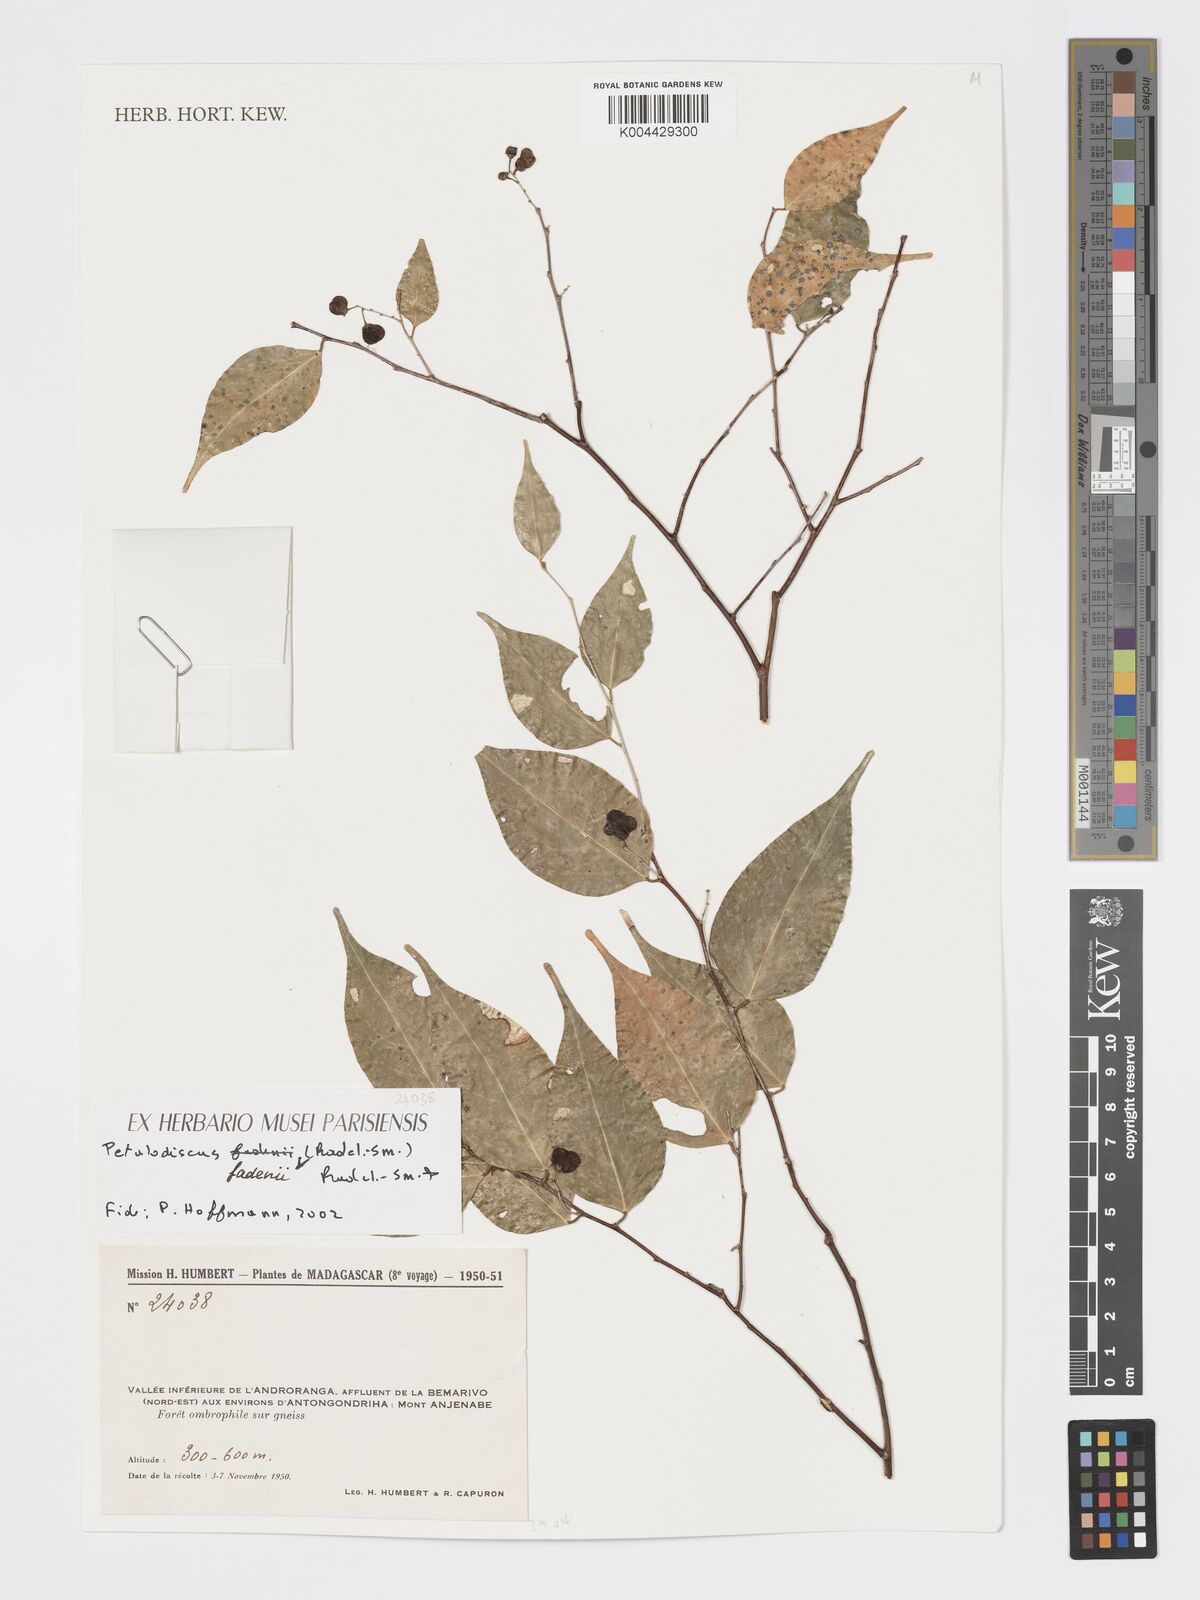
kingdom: Plantae
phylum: Tracheophyta
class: Magnoliopsida
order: Malpighiales
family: Phyllanthaceae
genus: Wielandia
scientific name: Wielandia fadenii
